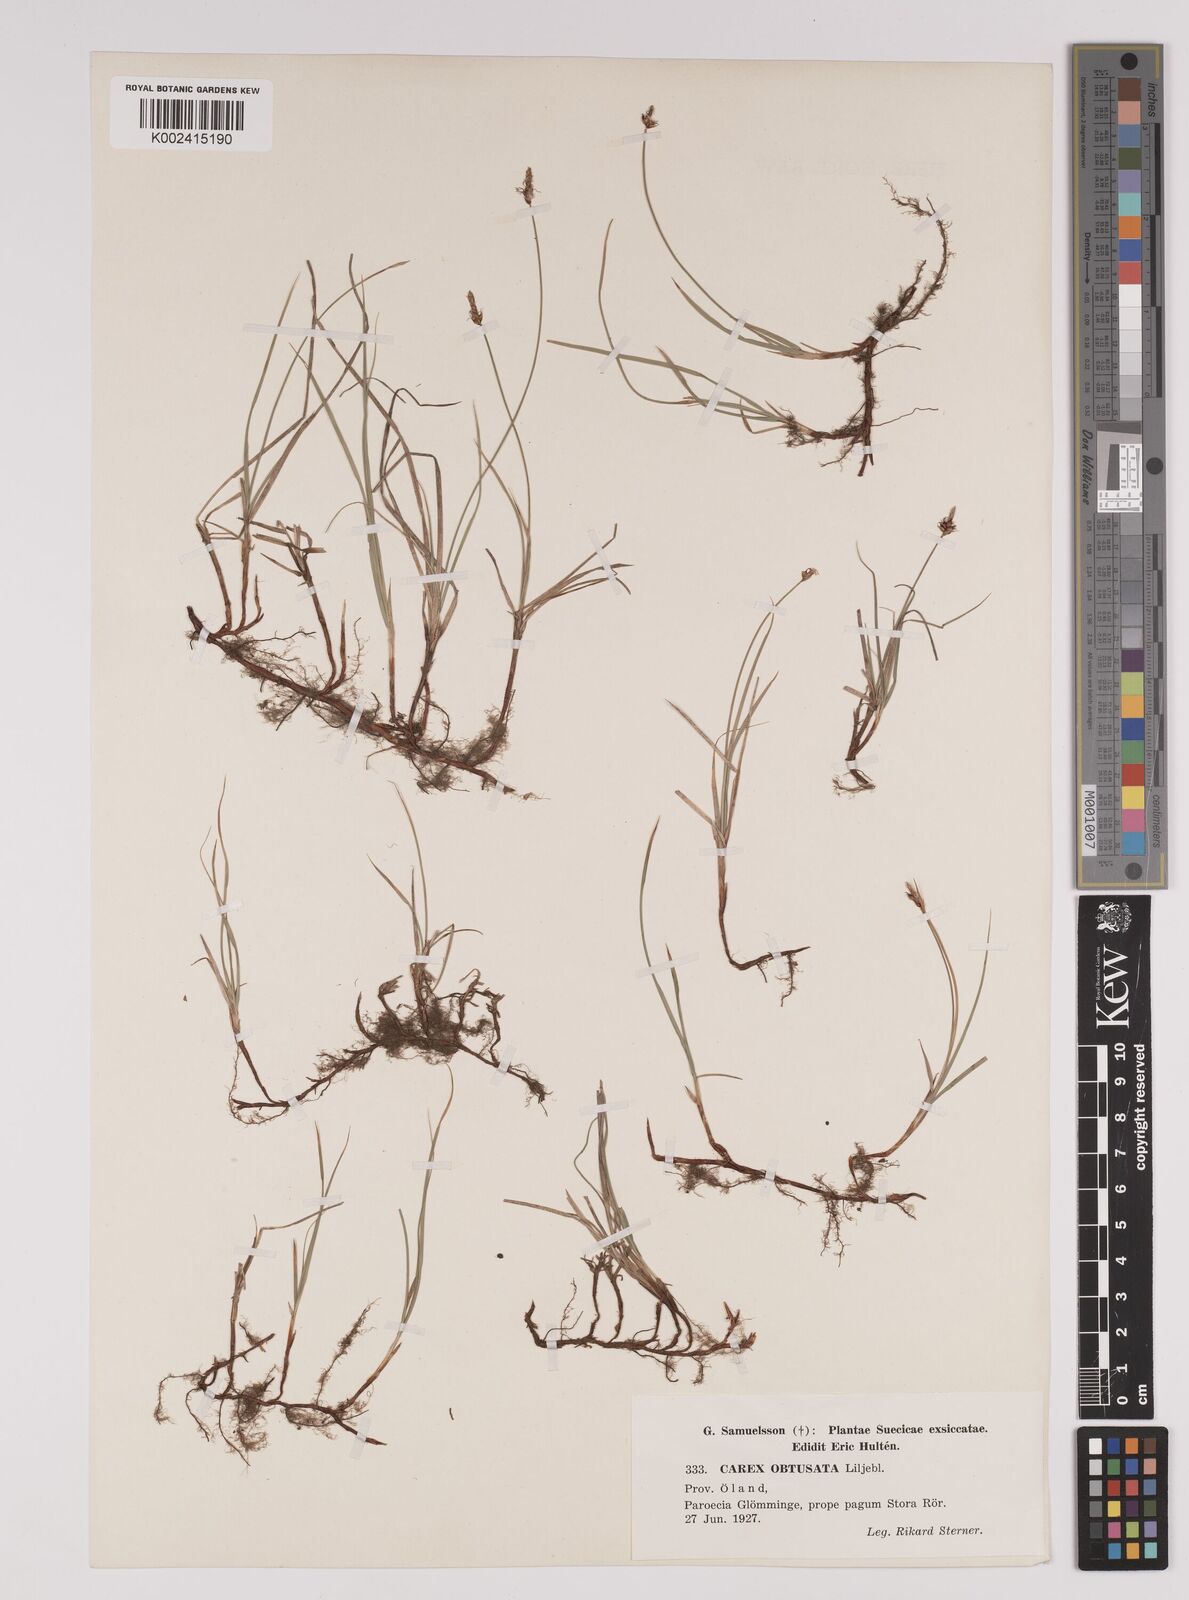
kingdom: Plantae
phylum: Tracheophyta
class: Liliopsida
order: Poales
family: Cyperaceae
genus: Carex
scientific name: Carex obtusata
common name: Blunt sedge
